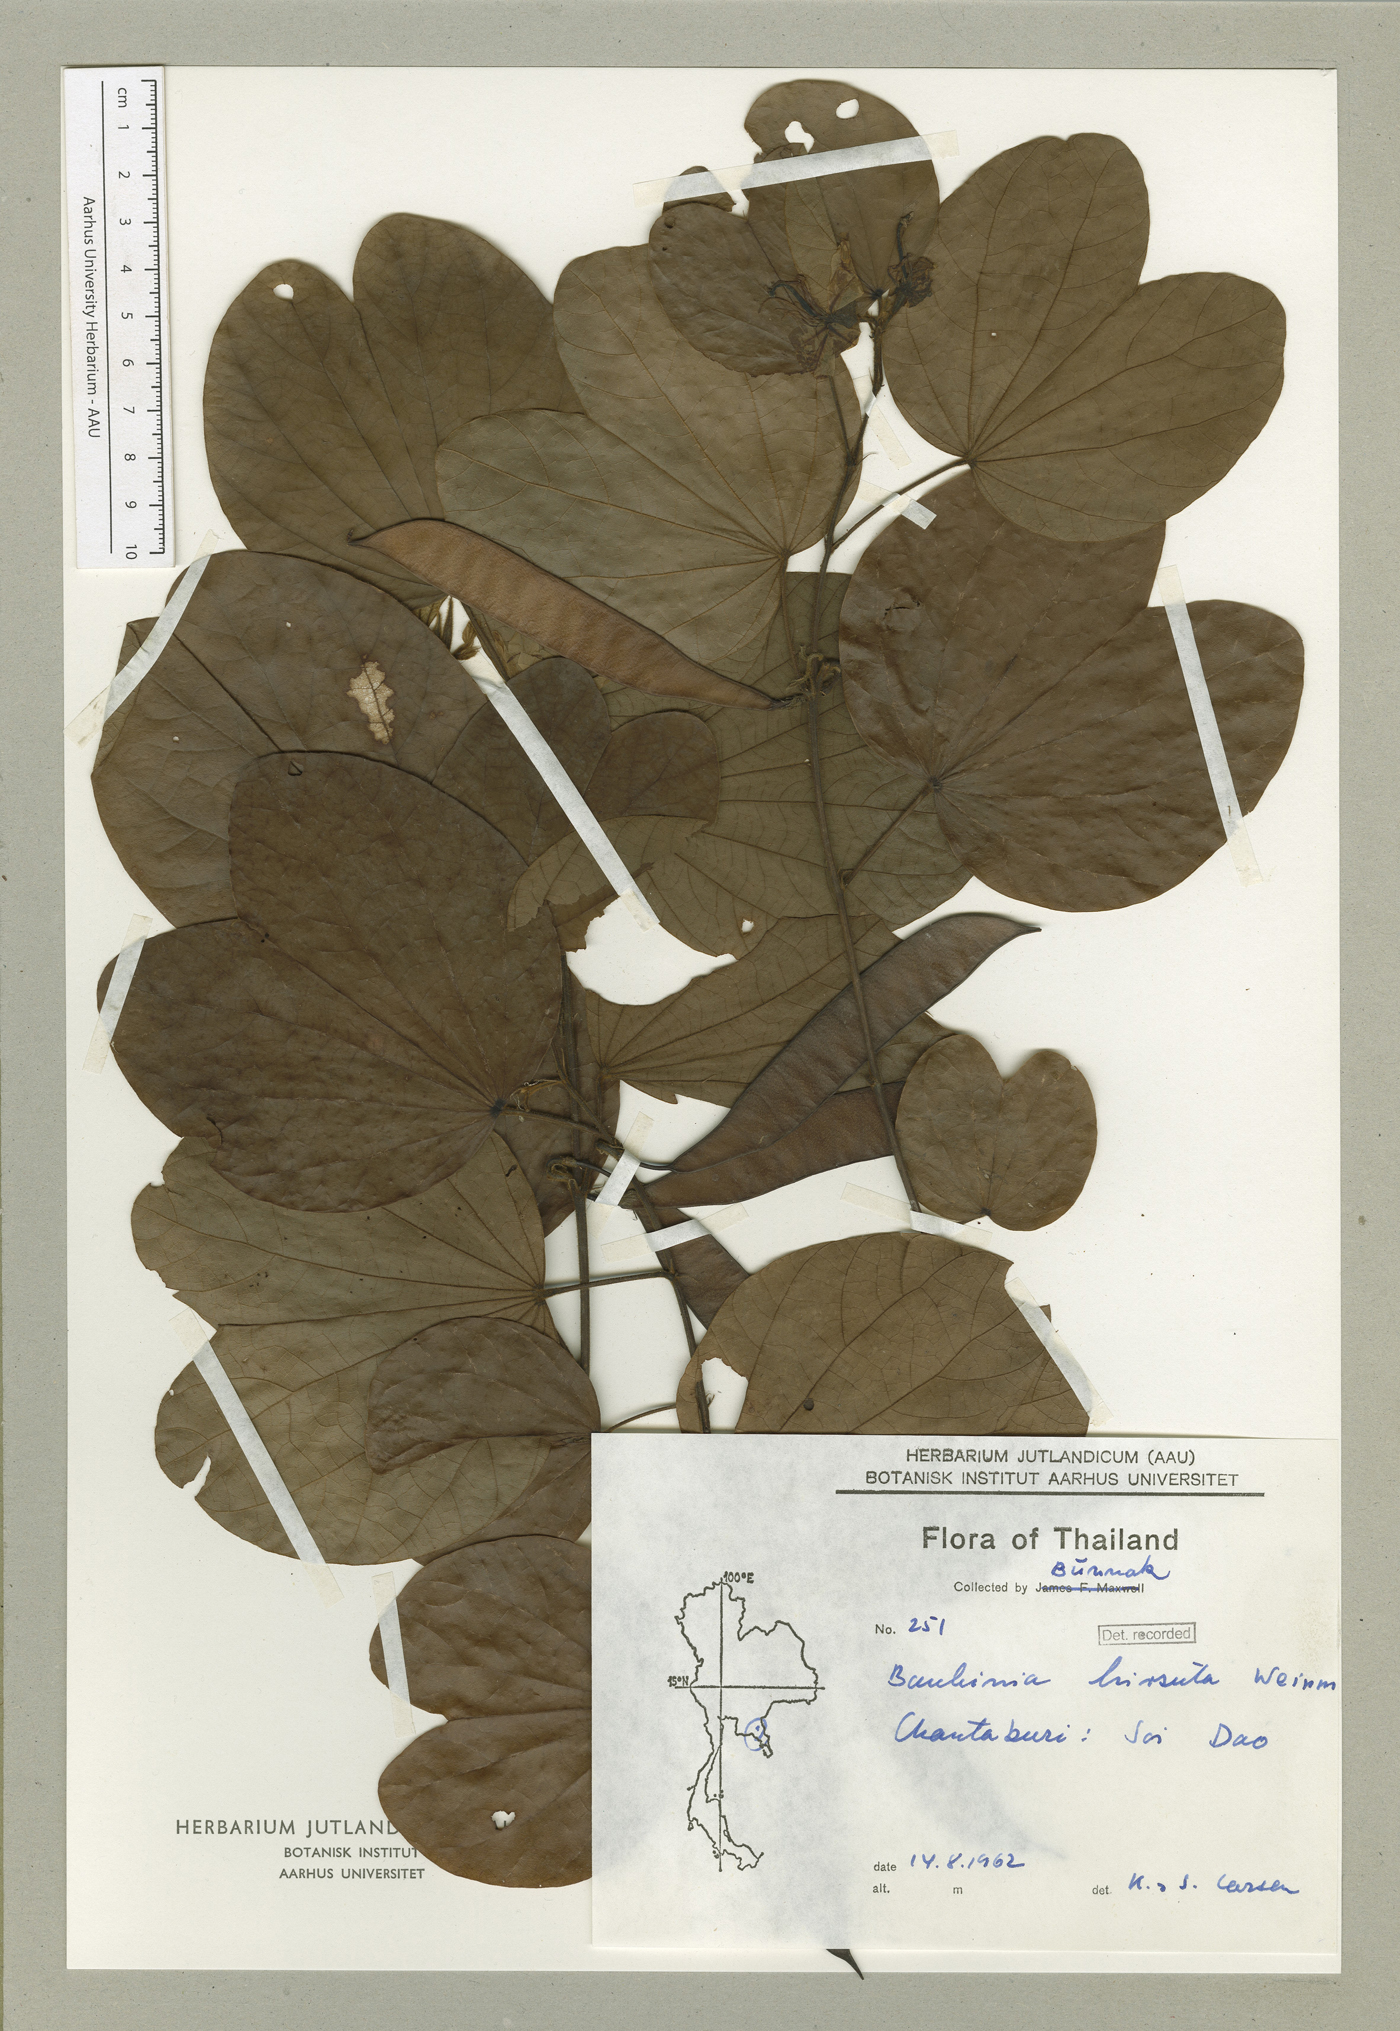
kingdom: Plantae
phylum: Tracheophyta
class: Magnoliopsida
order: Fabales
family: Fabaceae
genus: Bauhinia
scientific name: Bauhinia hirsuta
